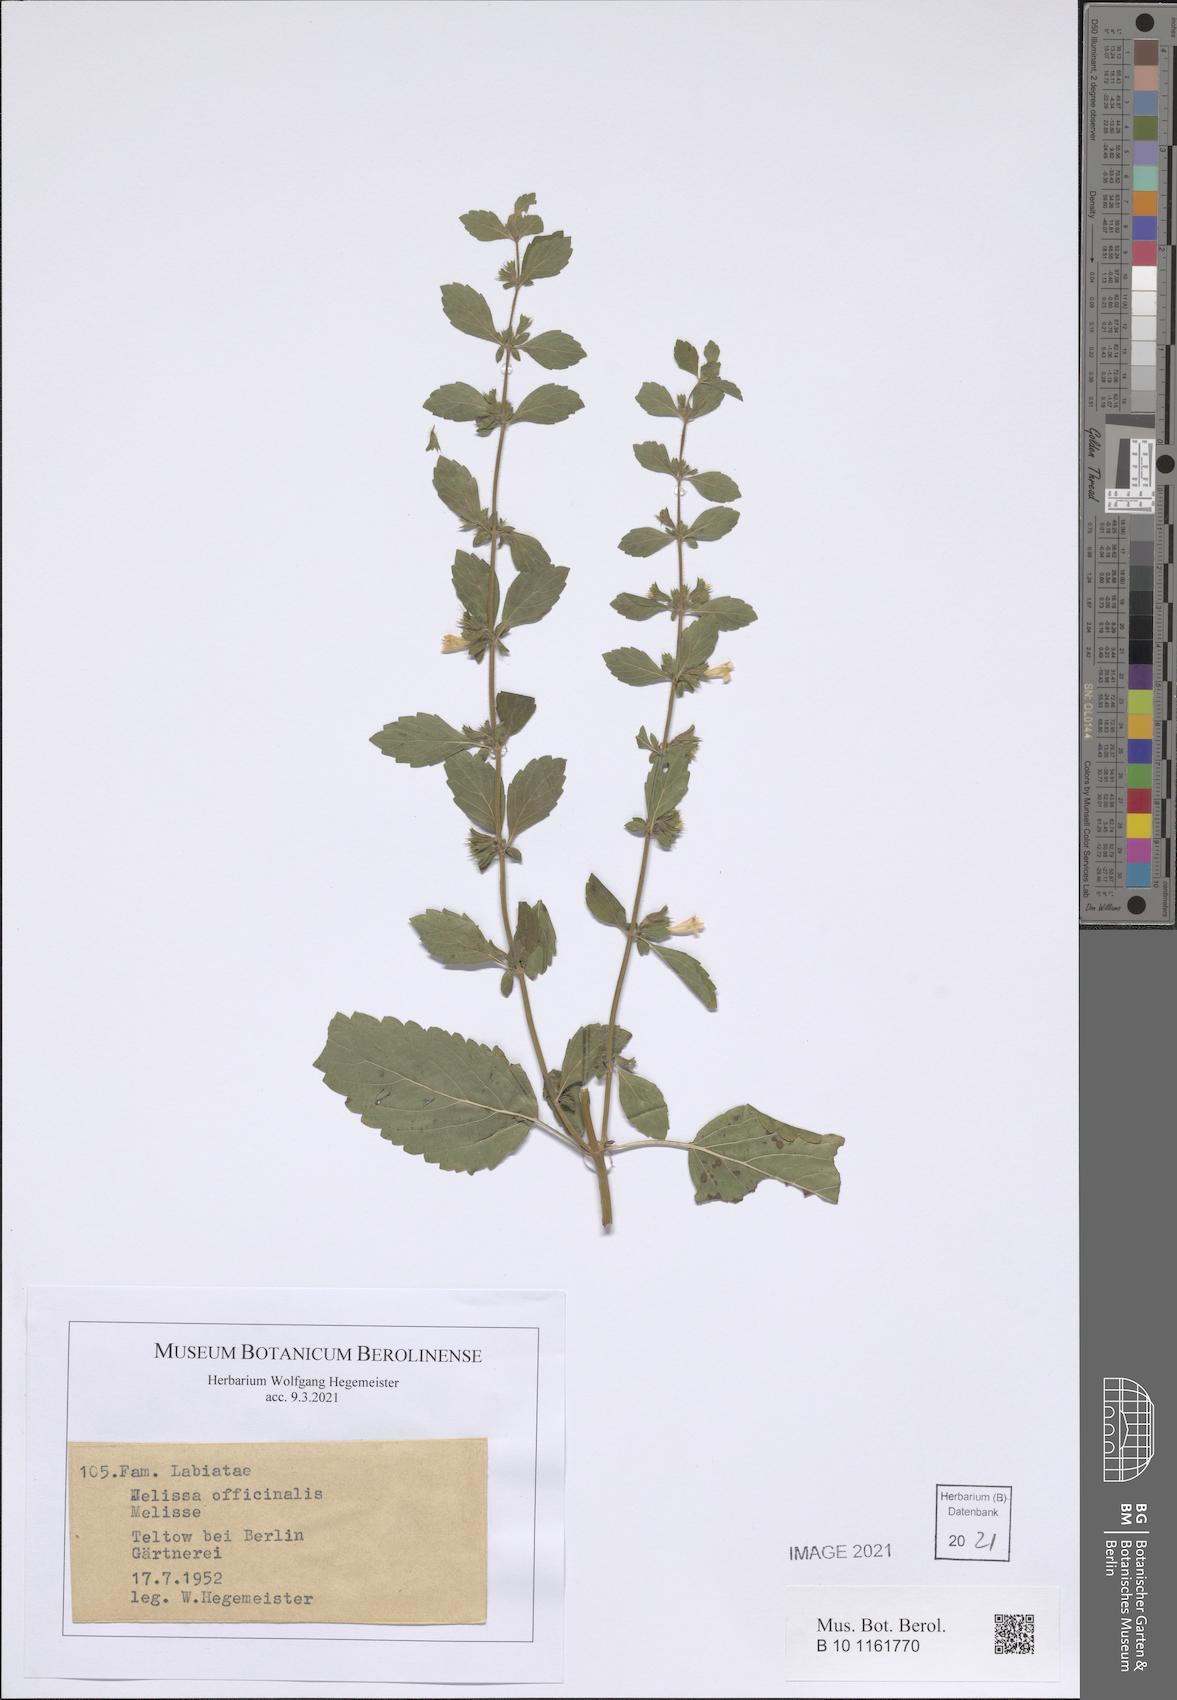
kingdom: Plantae
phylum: Tracheophyta
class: Magnoliopsida
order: Lamiales
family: Lamiaceae
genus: Melissa
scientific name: Melissa officinalis
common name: Balm
